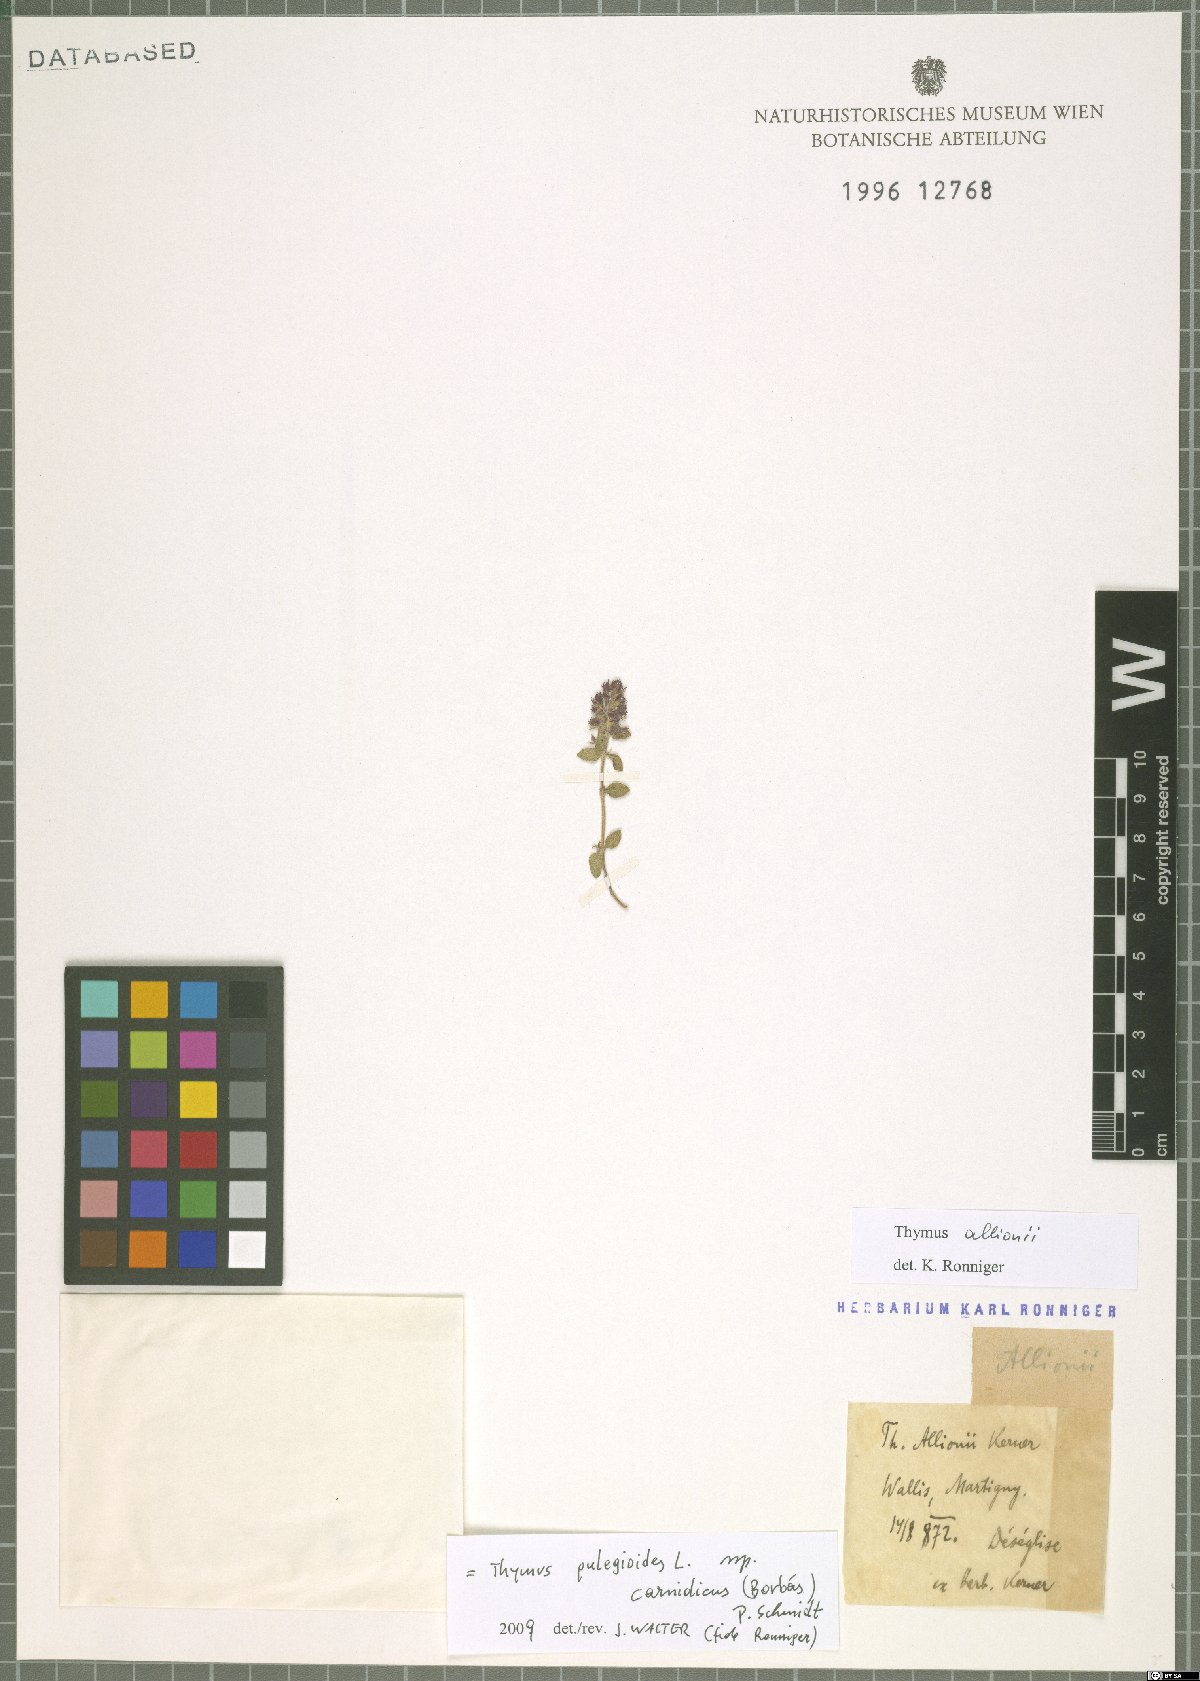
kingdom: Plantae
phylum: Tracheophyta
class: Magnoliopsida
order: Lamiales
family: Lamiaceae
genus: Thymus
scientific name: Thymus pannonicus
